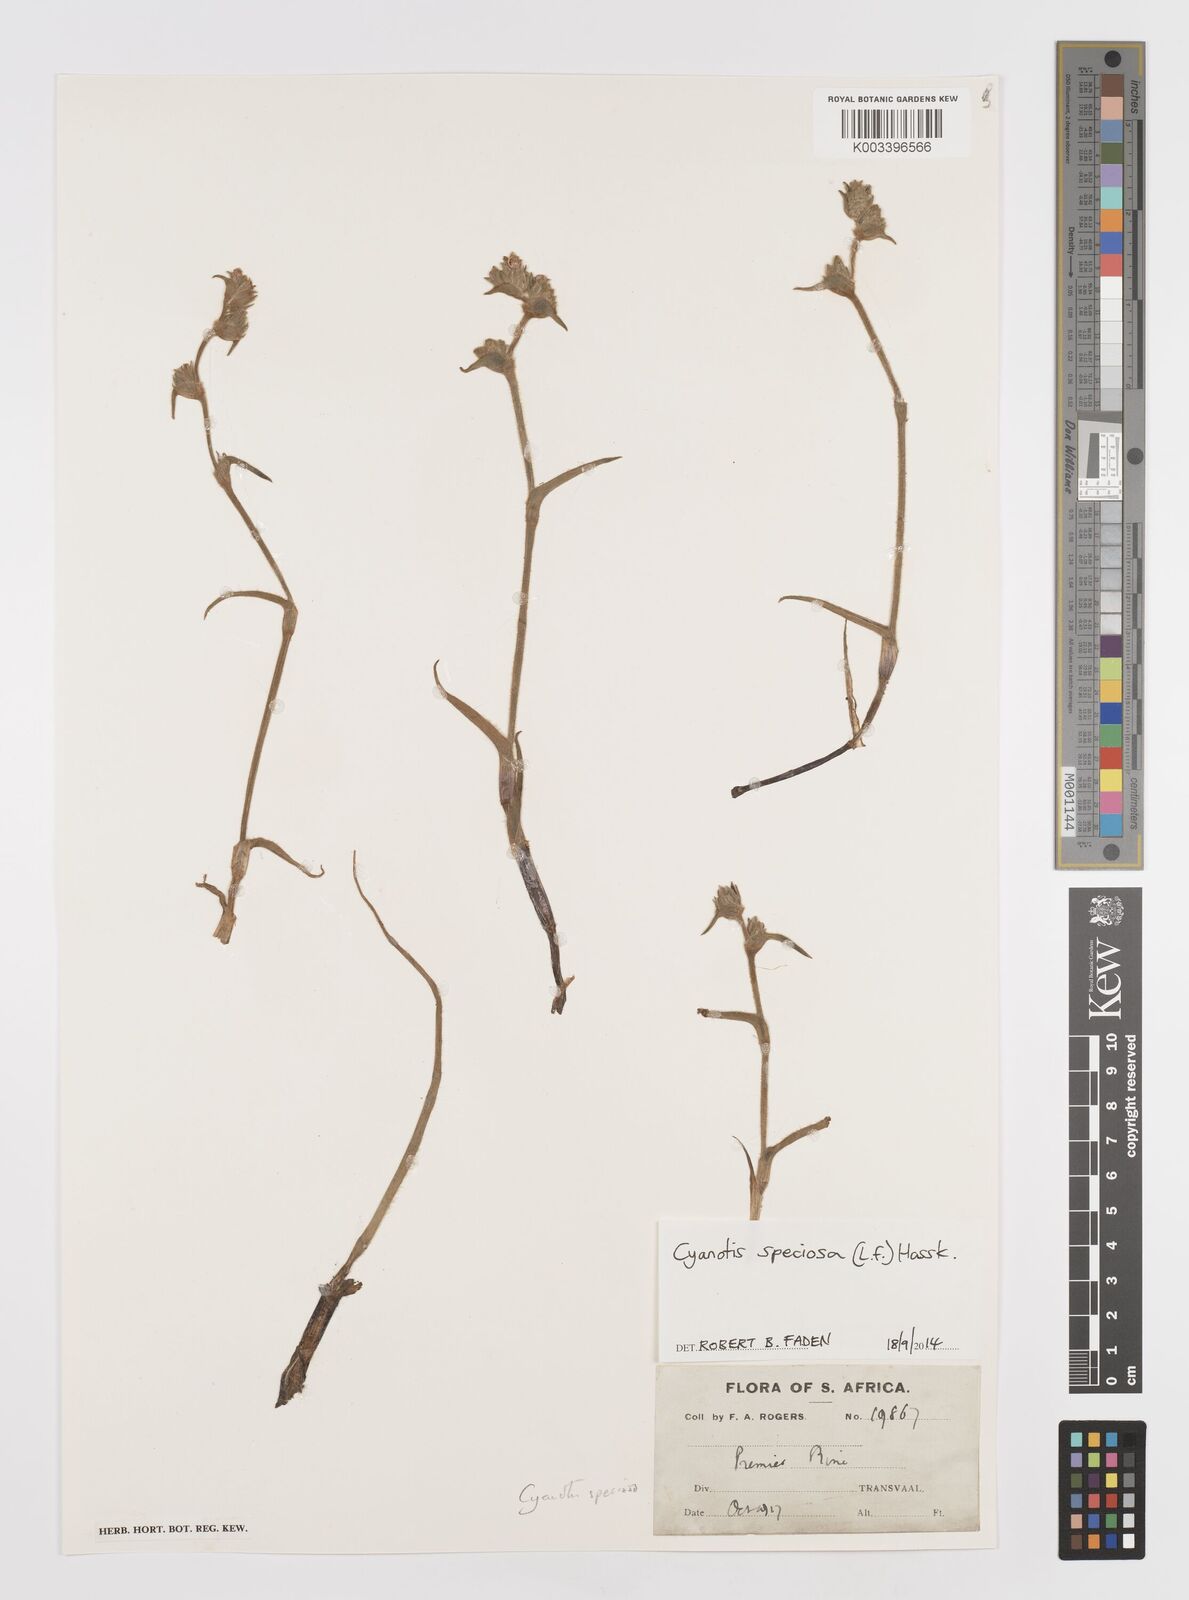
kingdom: Plantae
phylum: Tracheophyta
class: Liliopsida
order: Commelinales
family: Commelinaceae
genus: Cyanotis
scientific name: Cyanotis speciosa
